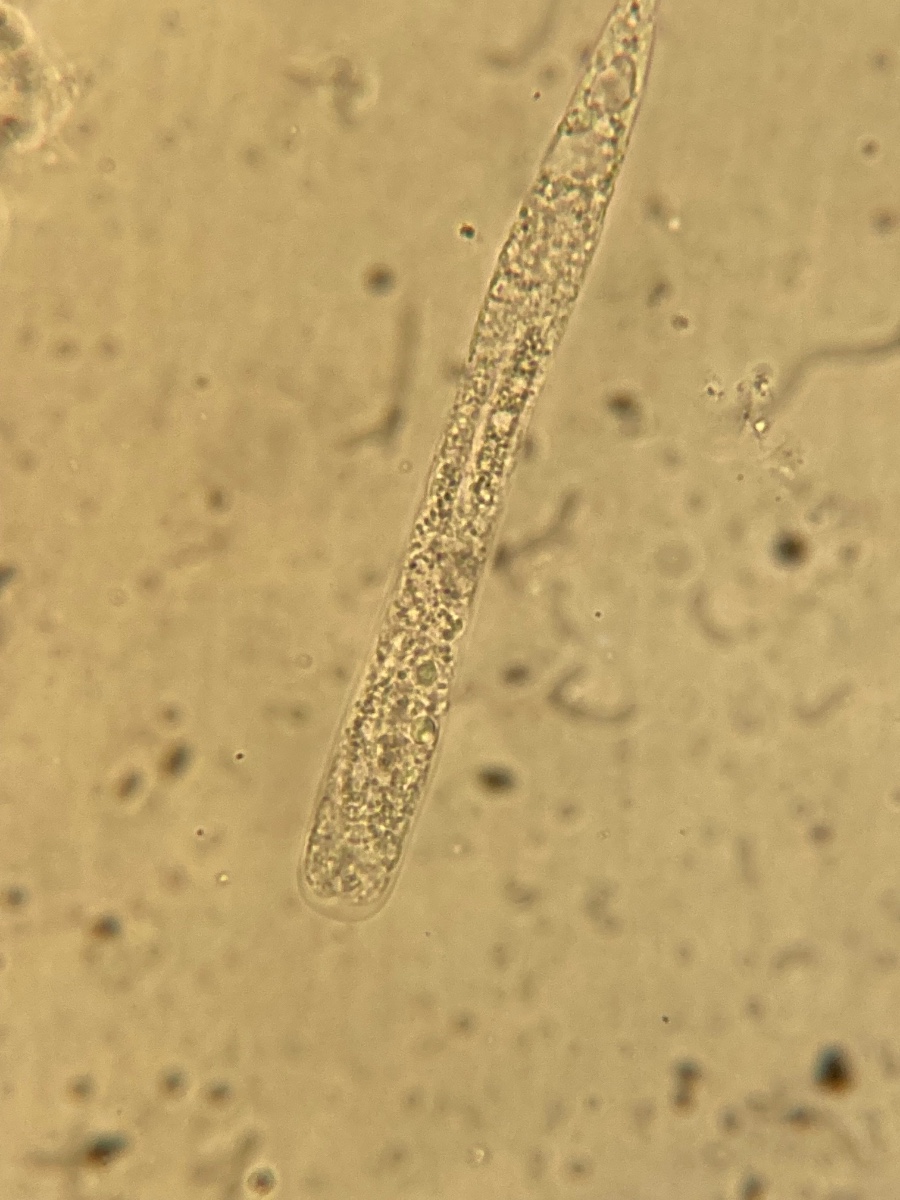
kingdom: Fungi
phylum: Ascomycota
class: Sordariomycetes
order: Diaporthales
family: Diaporthaceae
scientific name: Diaporthaceae
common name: kulknippefamilien
